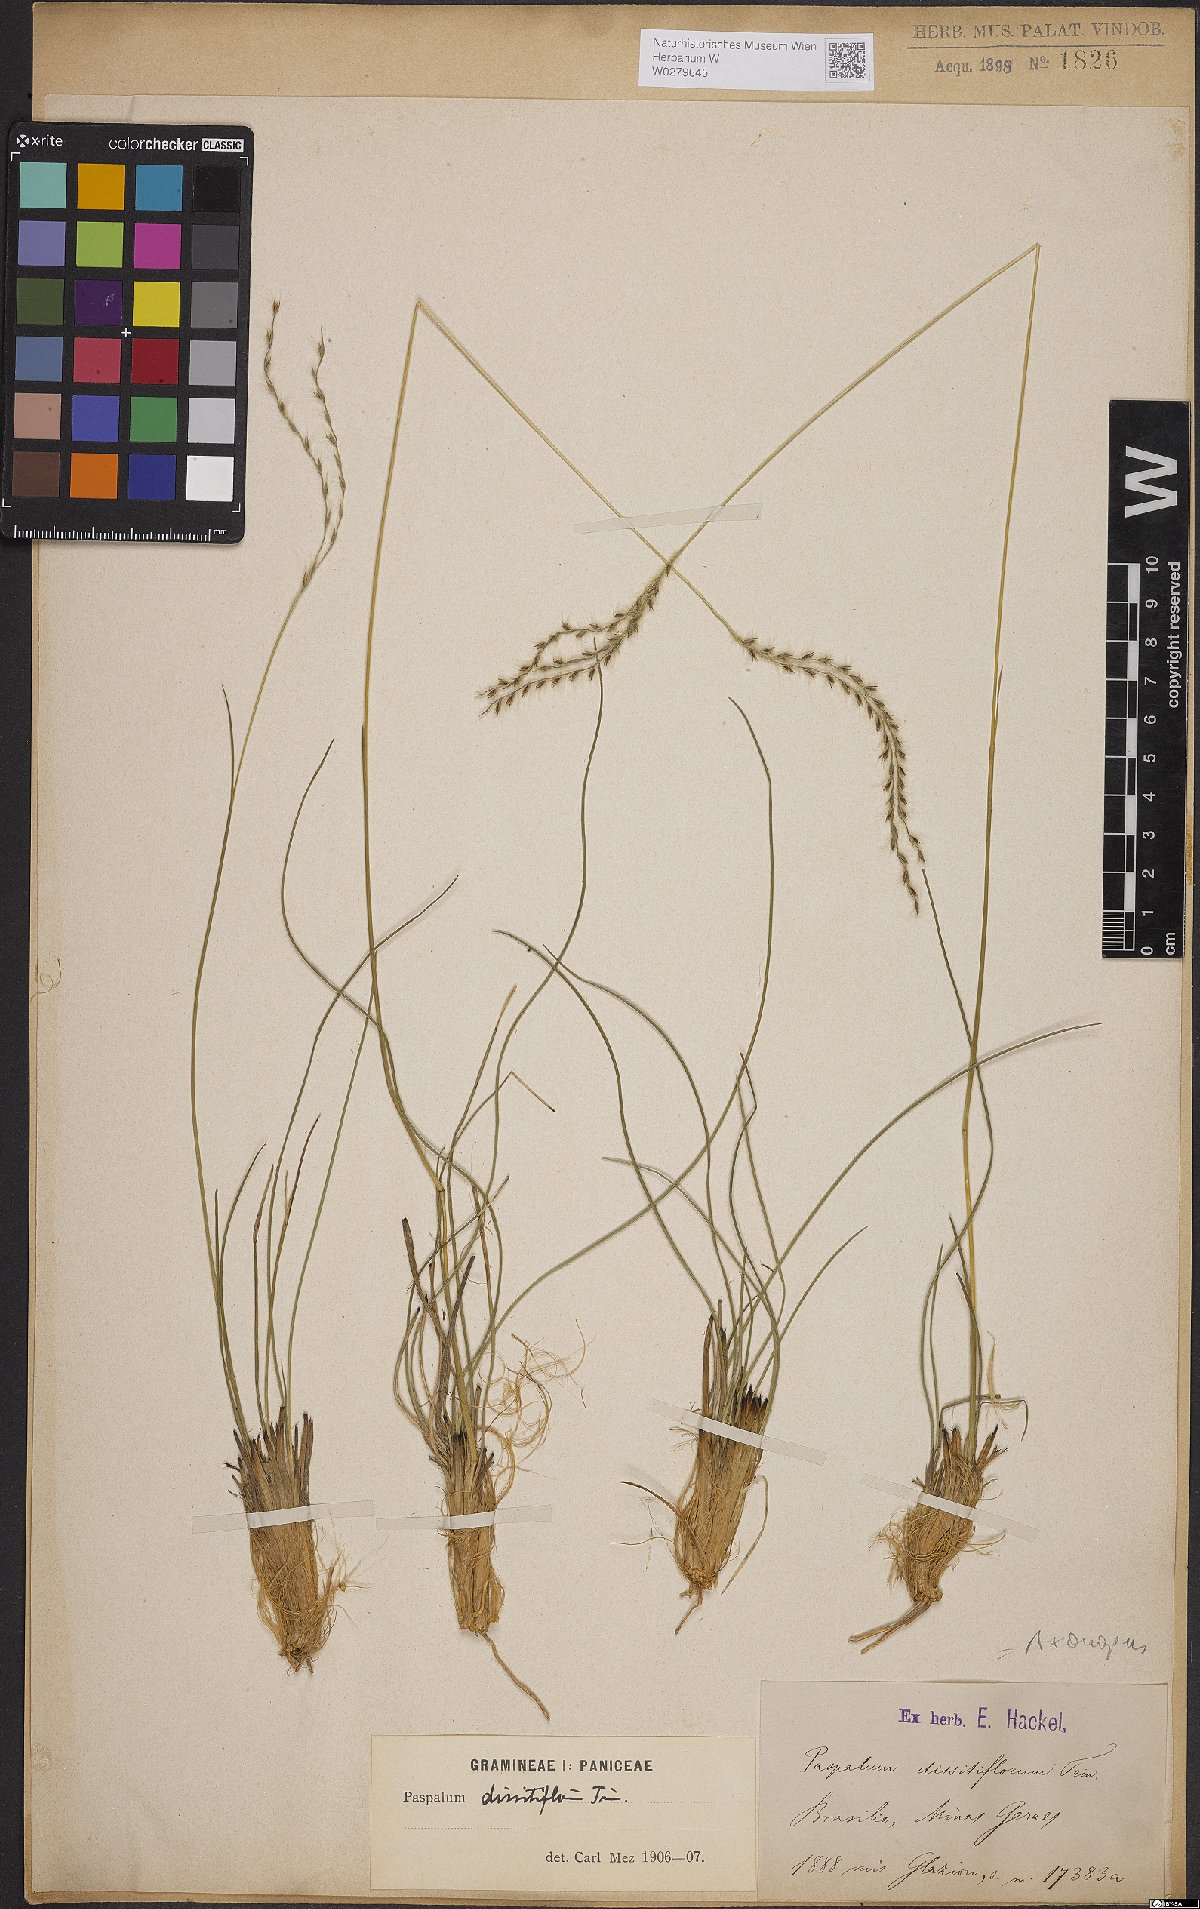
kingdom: Plantae
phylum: Tracheophyta
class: Liliopsida
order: Poales
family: Poaceae
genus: Axonopus
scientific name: Axonopus brasiliensis
